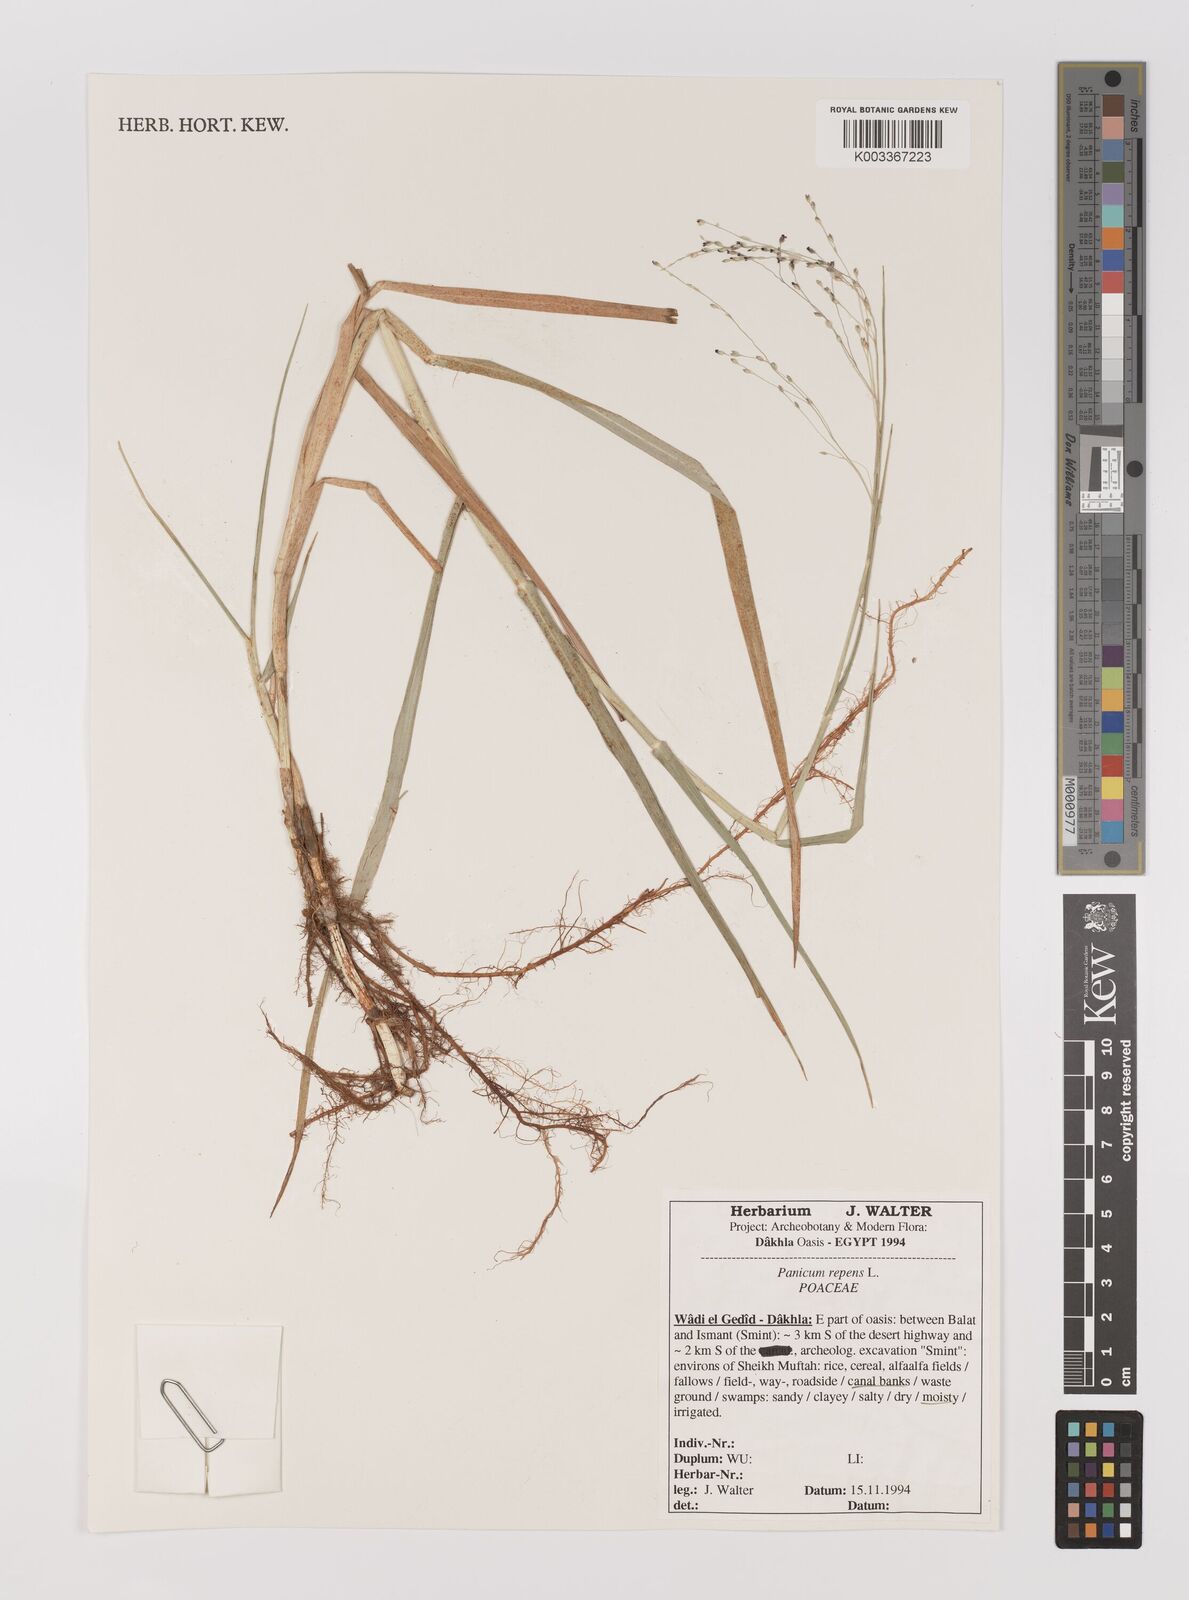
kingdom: Plantae
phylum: Tracheophyta
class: Liliopsida
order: Poales
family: Poaceae
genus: Panicum
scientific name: Panicum repens
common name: Torpedo grass
